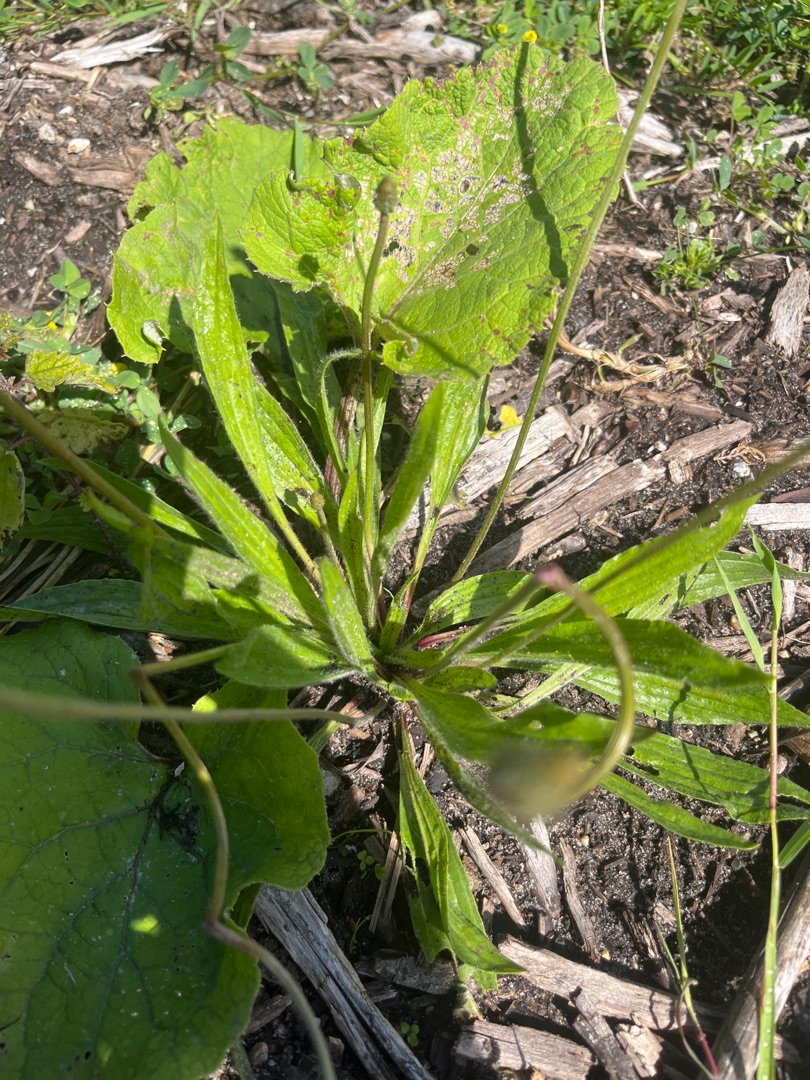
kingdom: Plantae
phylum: Tracheophyta
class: Magnoliopsida
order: Lamiales
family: Plantaginaceae
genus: Plantago
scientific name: Plantago lanceolata
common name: Lancet-vejbred
